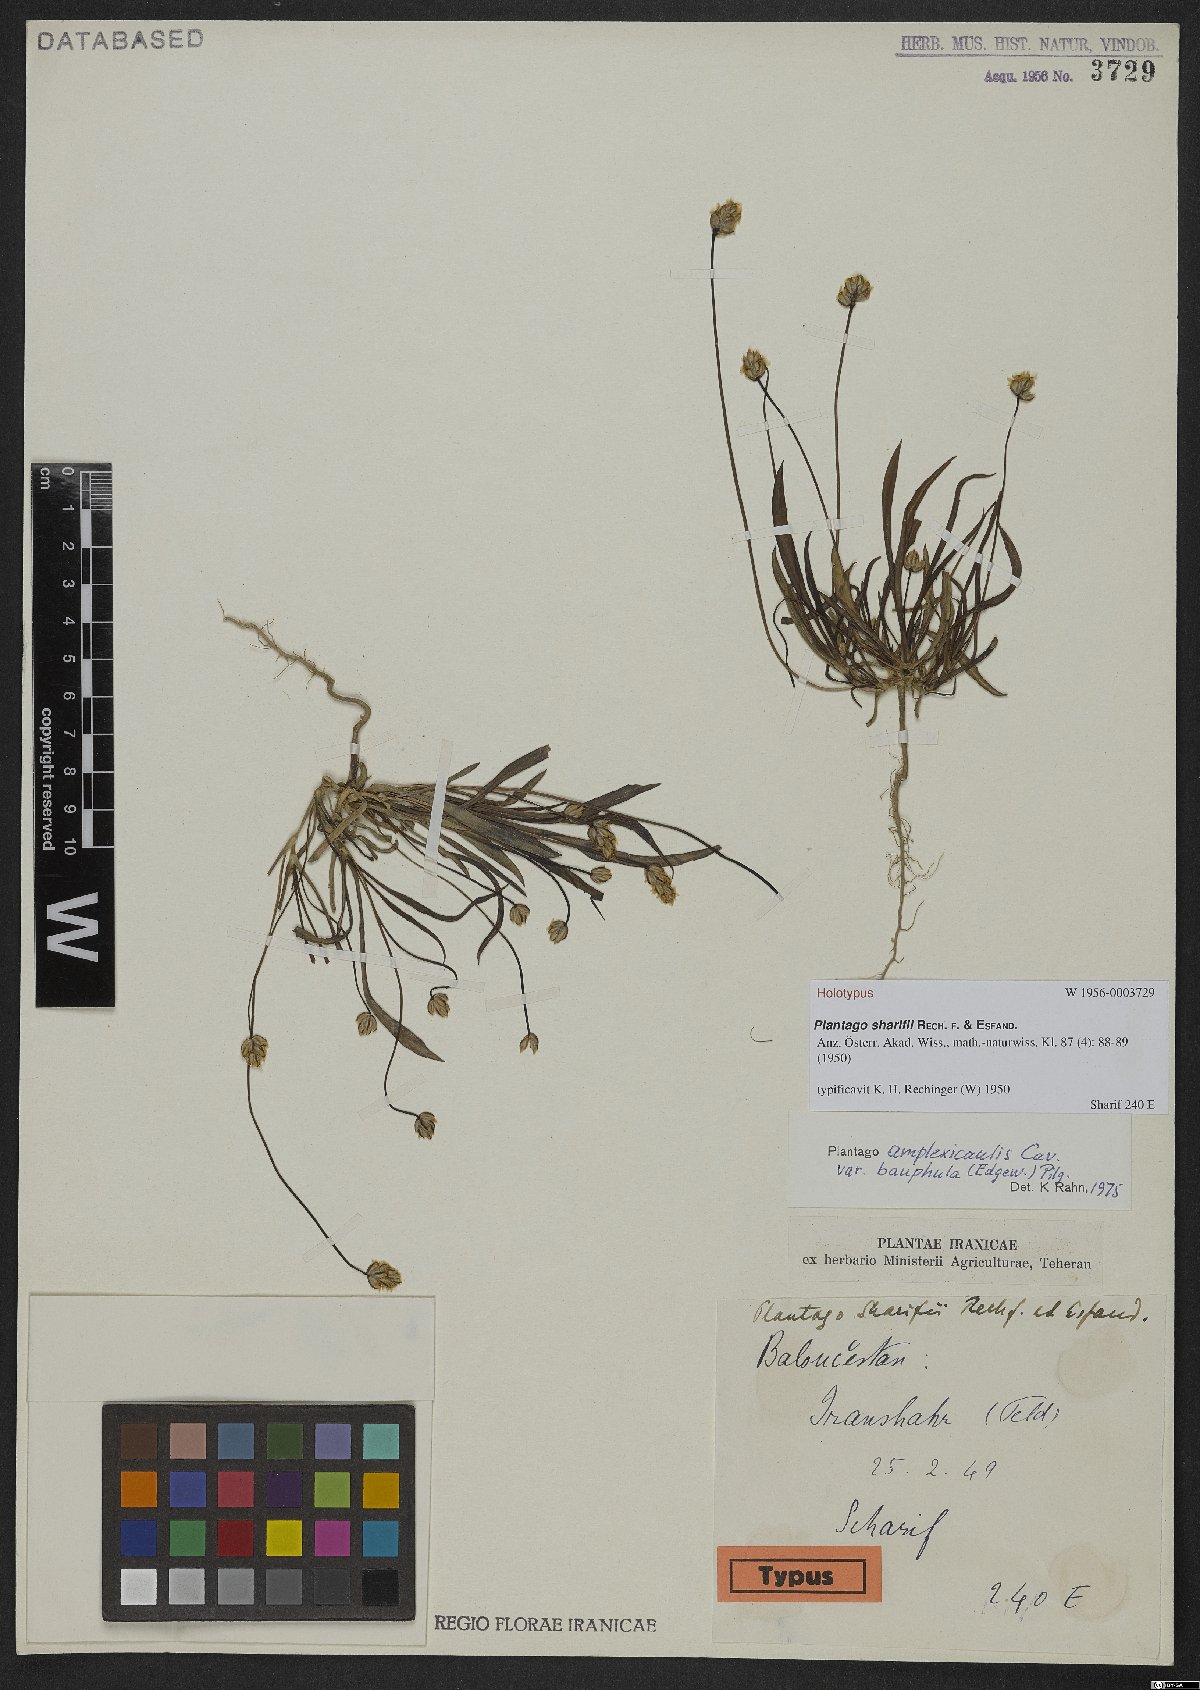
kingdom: Plantae
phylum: Tracheophyta
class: Magnoliopsida
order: Lamiales
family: Plantaginaceae
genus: Plantago
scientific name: Plantago sharifii
